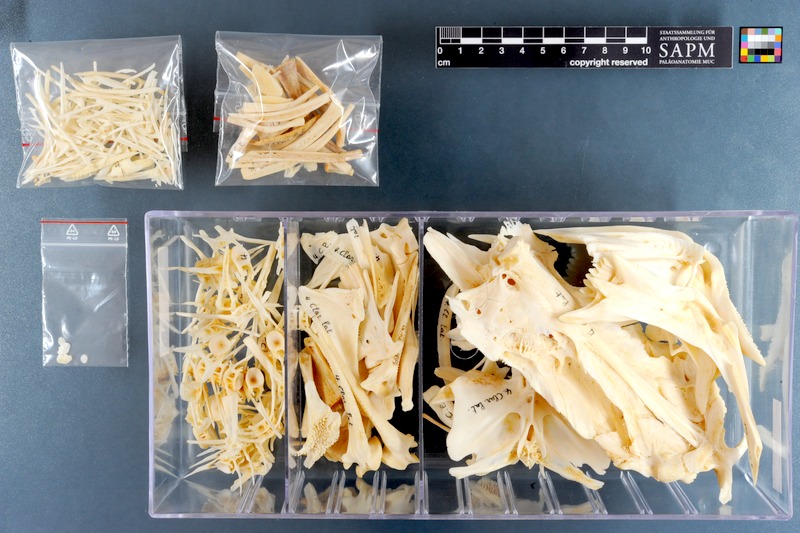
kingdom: Animalia
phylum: Chordata
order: Siluriformes
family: Claroteidae
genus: Clarotes
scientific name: Clarotes laticeps
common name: Spiny catfish
